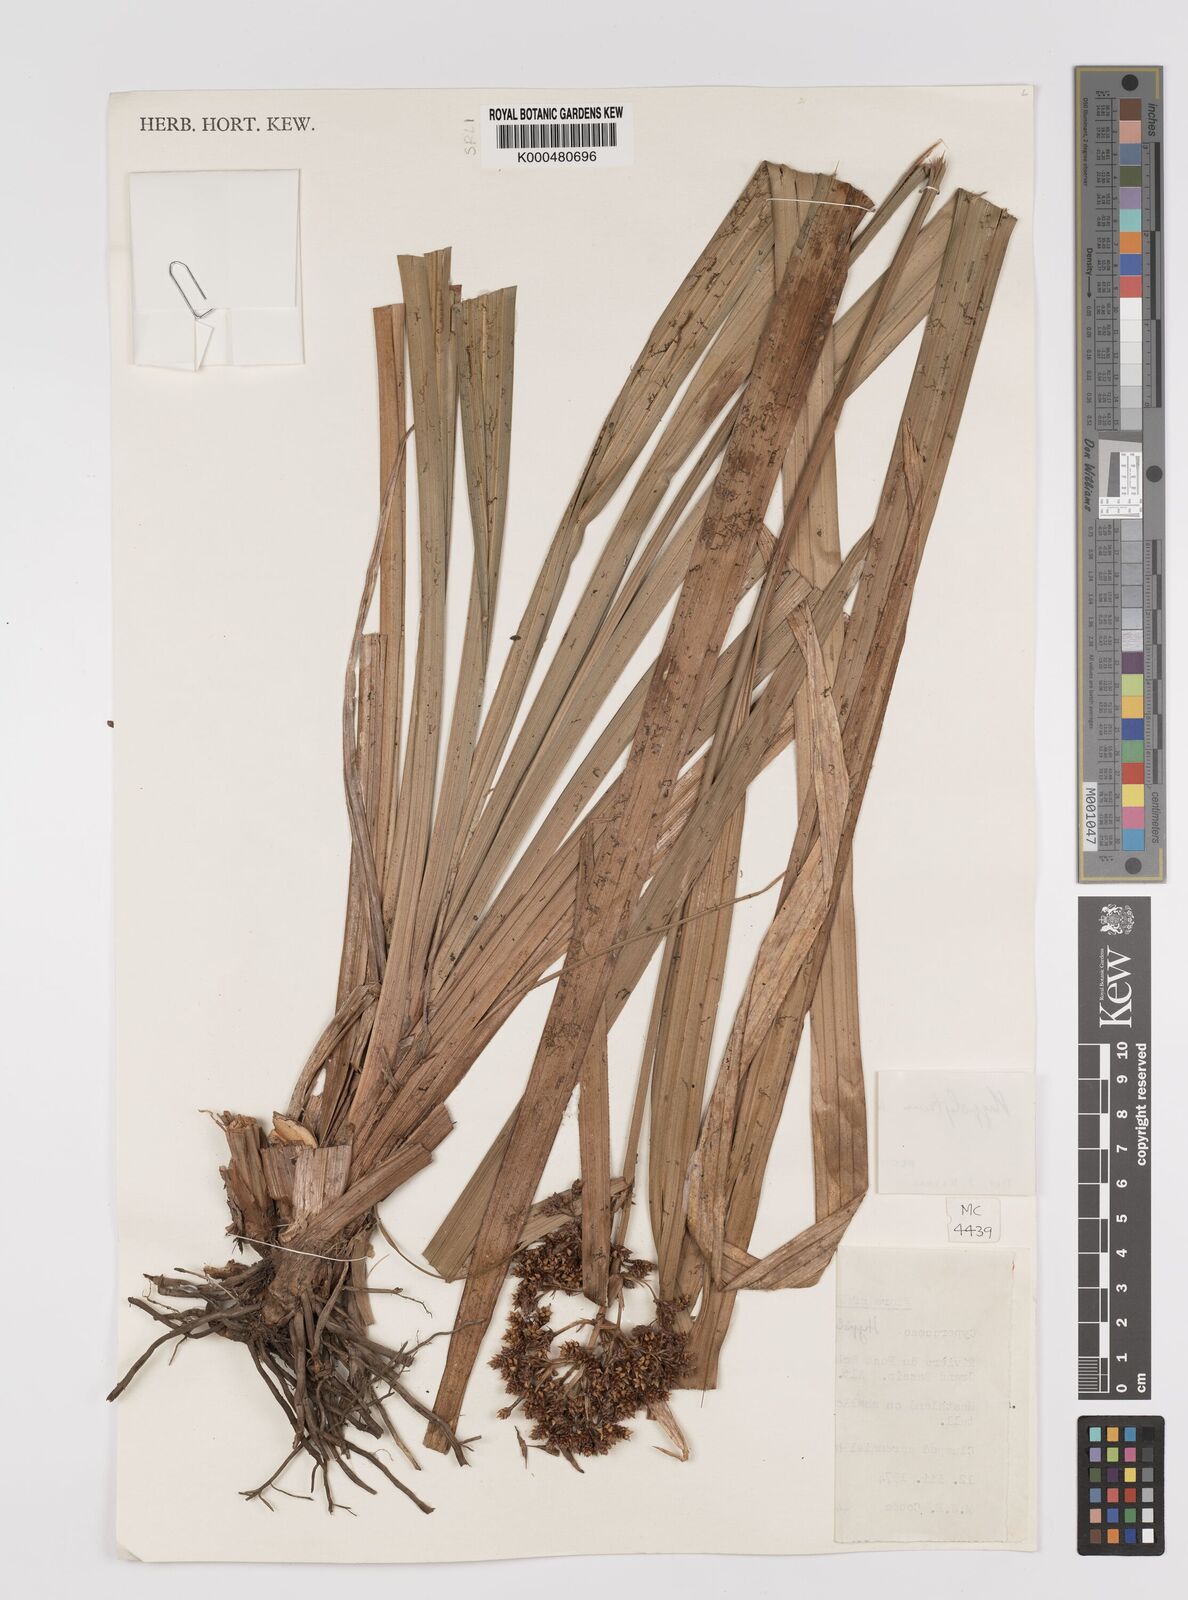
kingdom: Plantae
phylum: Tracheophyta
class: Liliopsida
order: Poales
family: Cyperaceae
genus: Hypolytrum
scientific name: Hypolytrum mauritianum
